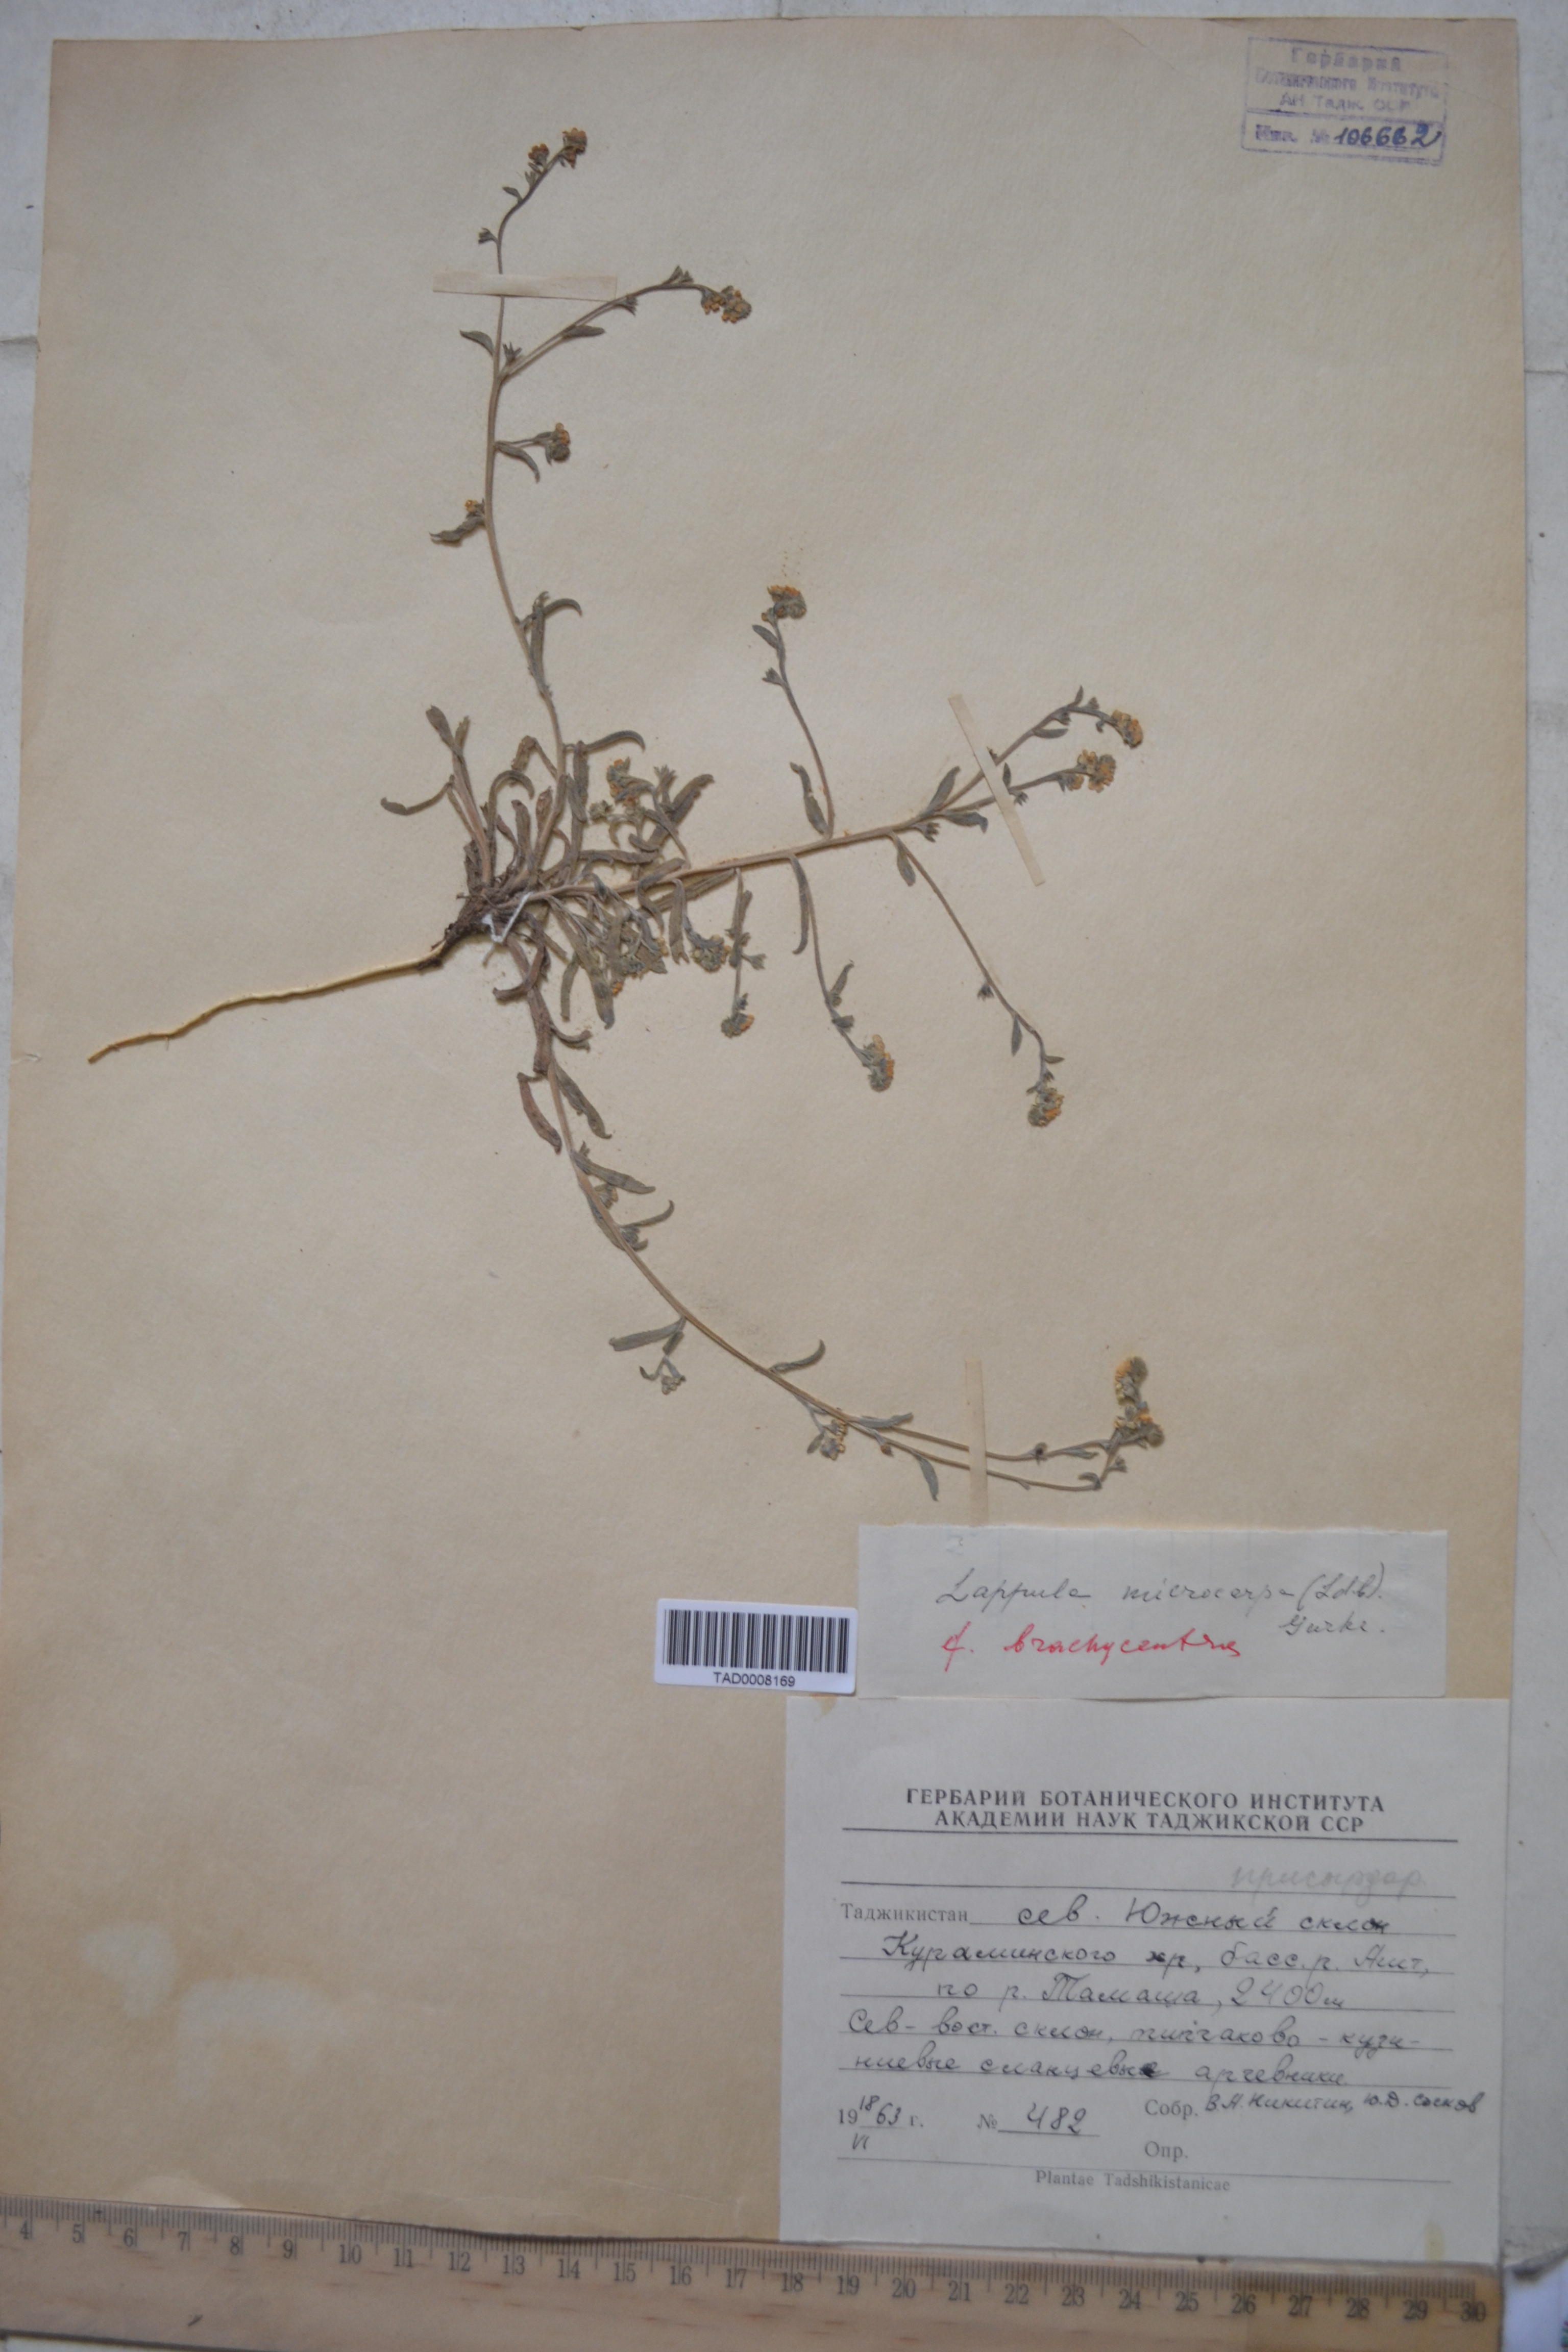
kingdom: Plantae
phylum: Tracheophyta
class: Magnoliopsida
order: Boraginales
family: Boraginaceae
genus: Lappula
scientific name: Lappula microcarpa
